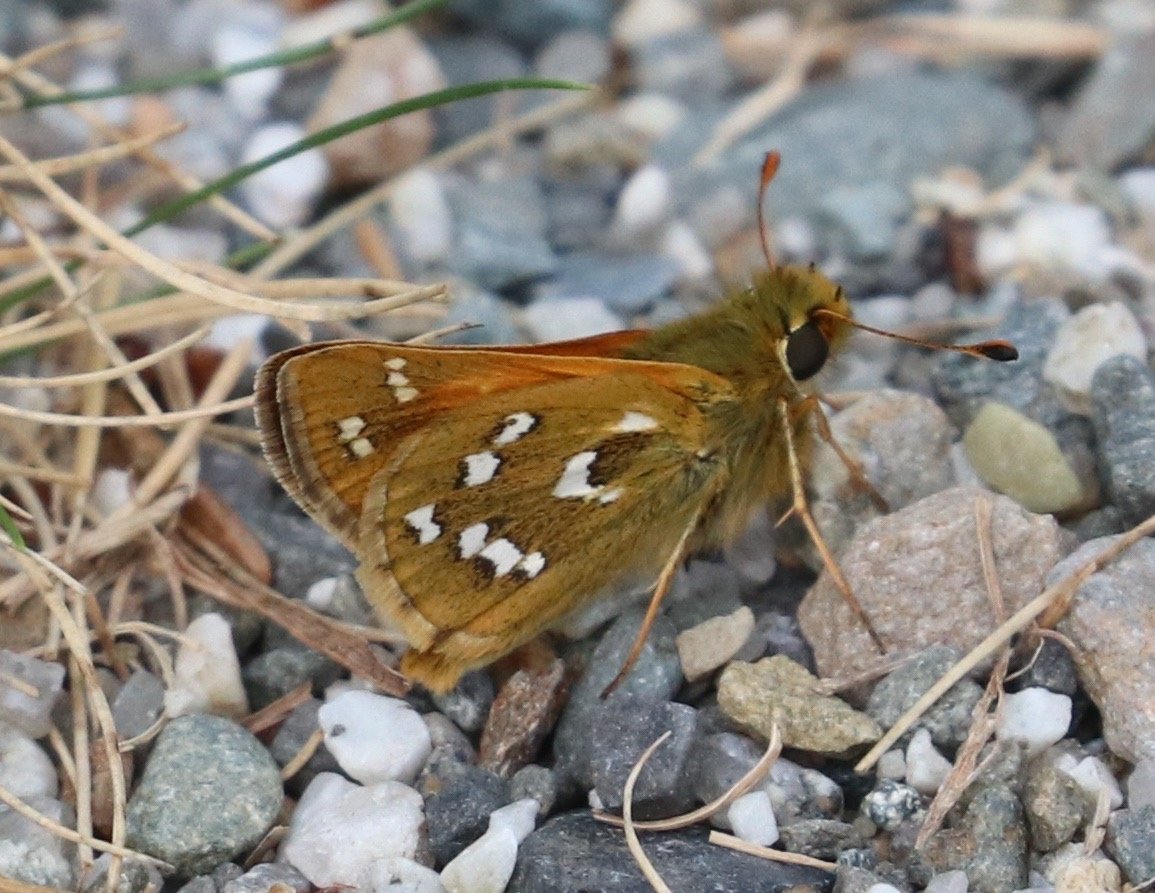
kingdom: Animalia
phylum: Arthropoda
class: Insecta
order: Lepidoptera
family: Hesperiidae
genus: Hesperia
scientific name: Hesperia comma
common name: Common Branded Skipper
